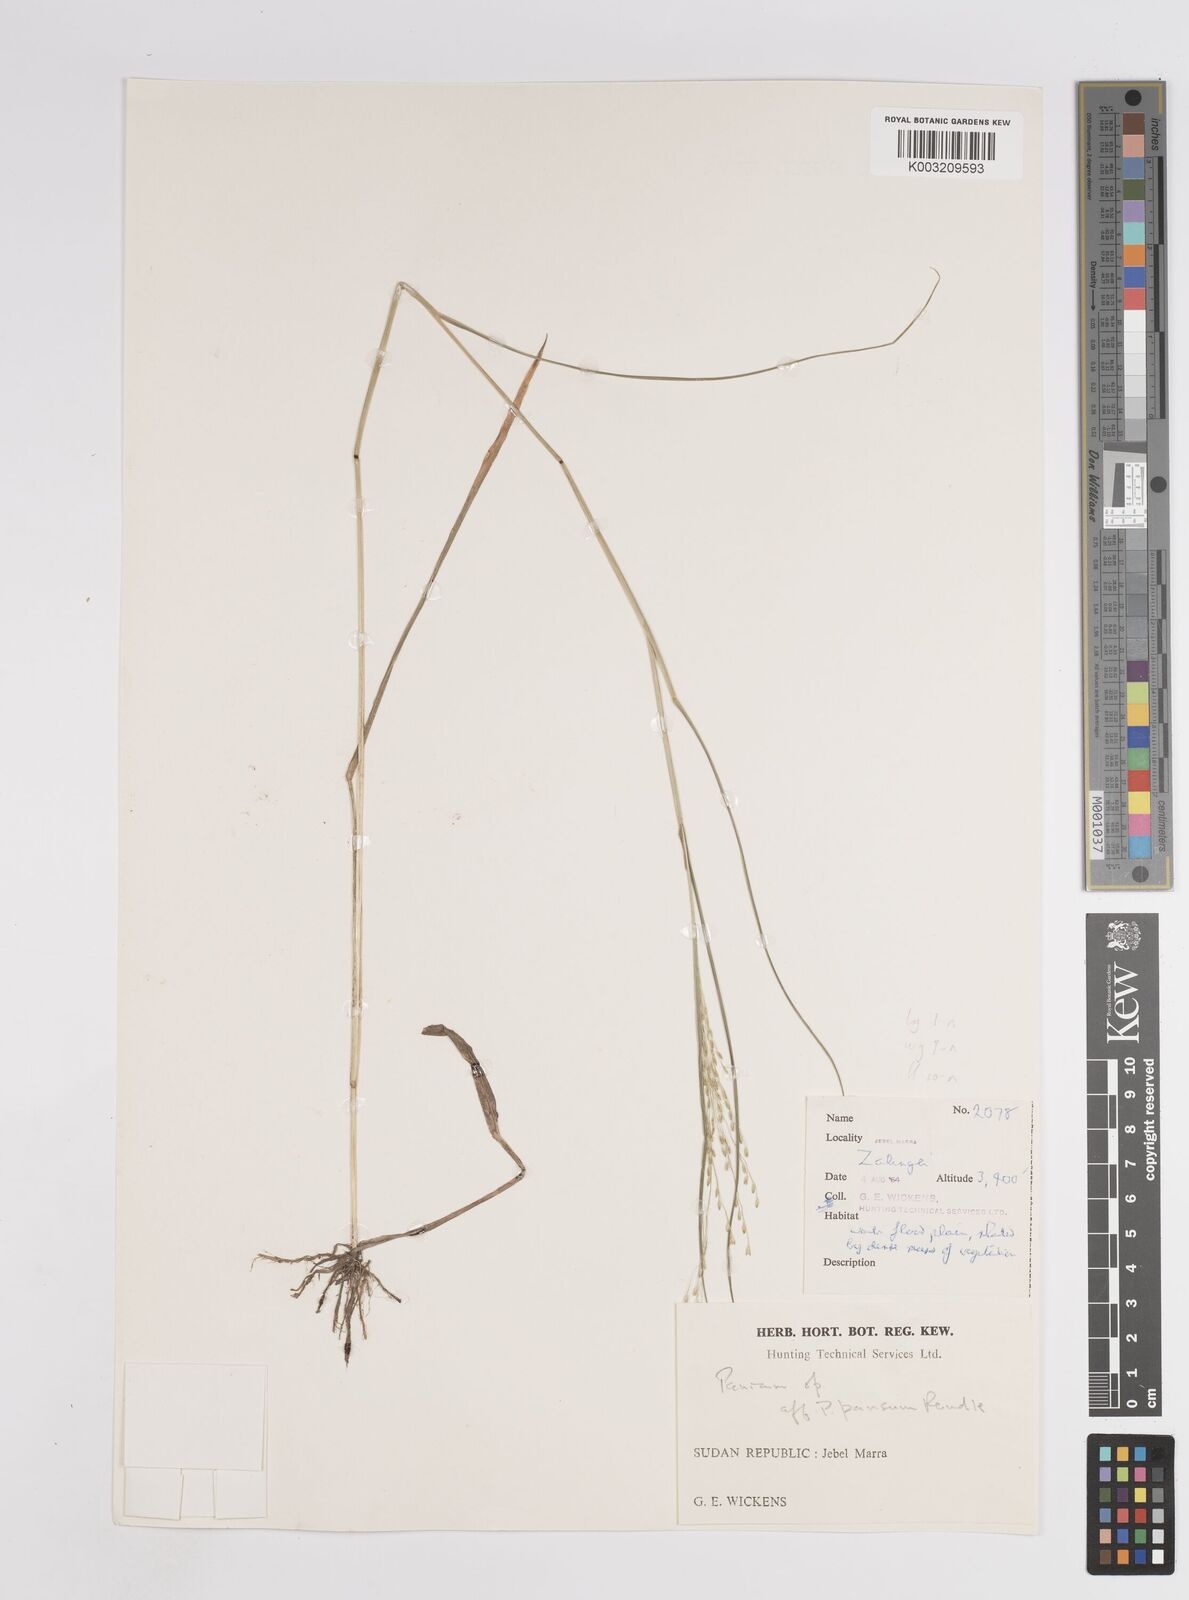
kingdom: Plantae
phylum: Tracheophyta
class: Liliopsida
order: Poales
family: Poaceae
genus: Panicum
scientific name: Panicum subalbidum
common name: Elbow buffalo grass
